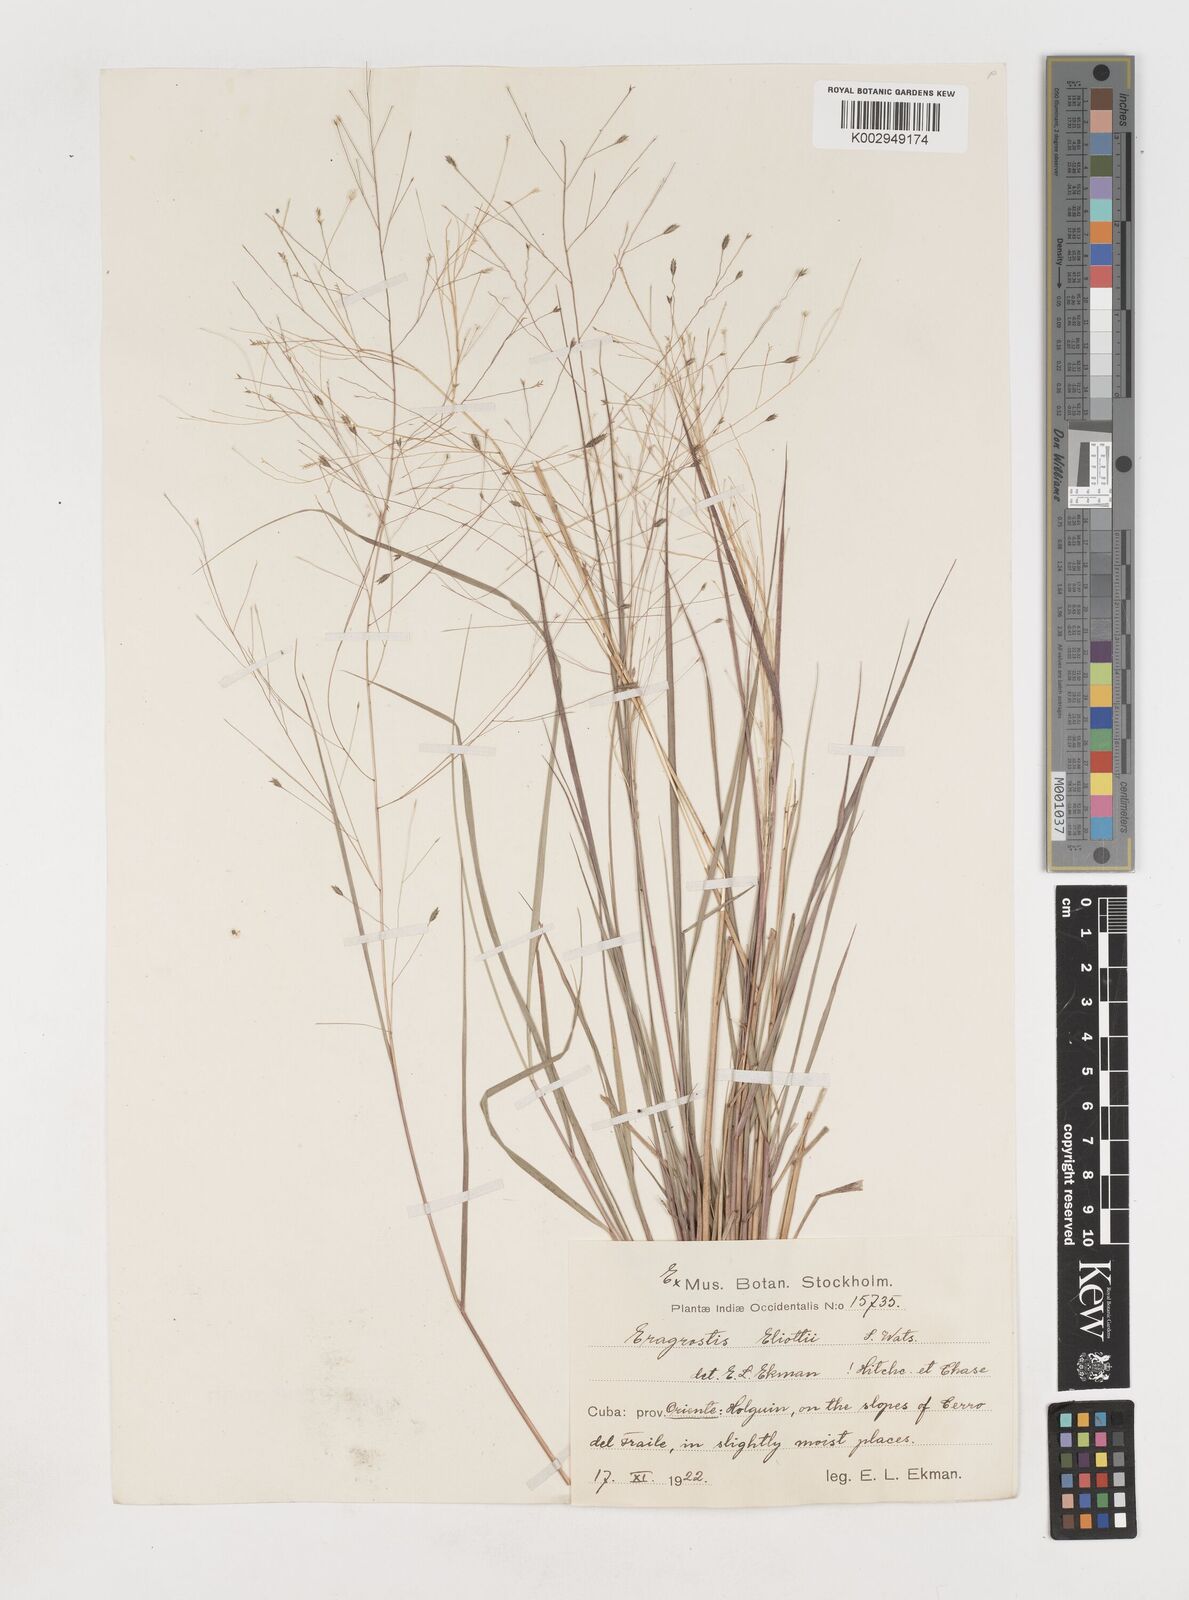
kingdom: Plantae
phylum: Tracheophyta
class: Liliopsida
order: Poales
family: Poaceae
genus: Eragrostis
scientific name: Eragrostis elliottii
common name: Elliott's love grass
